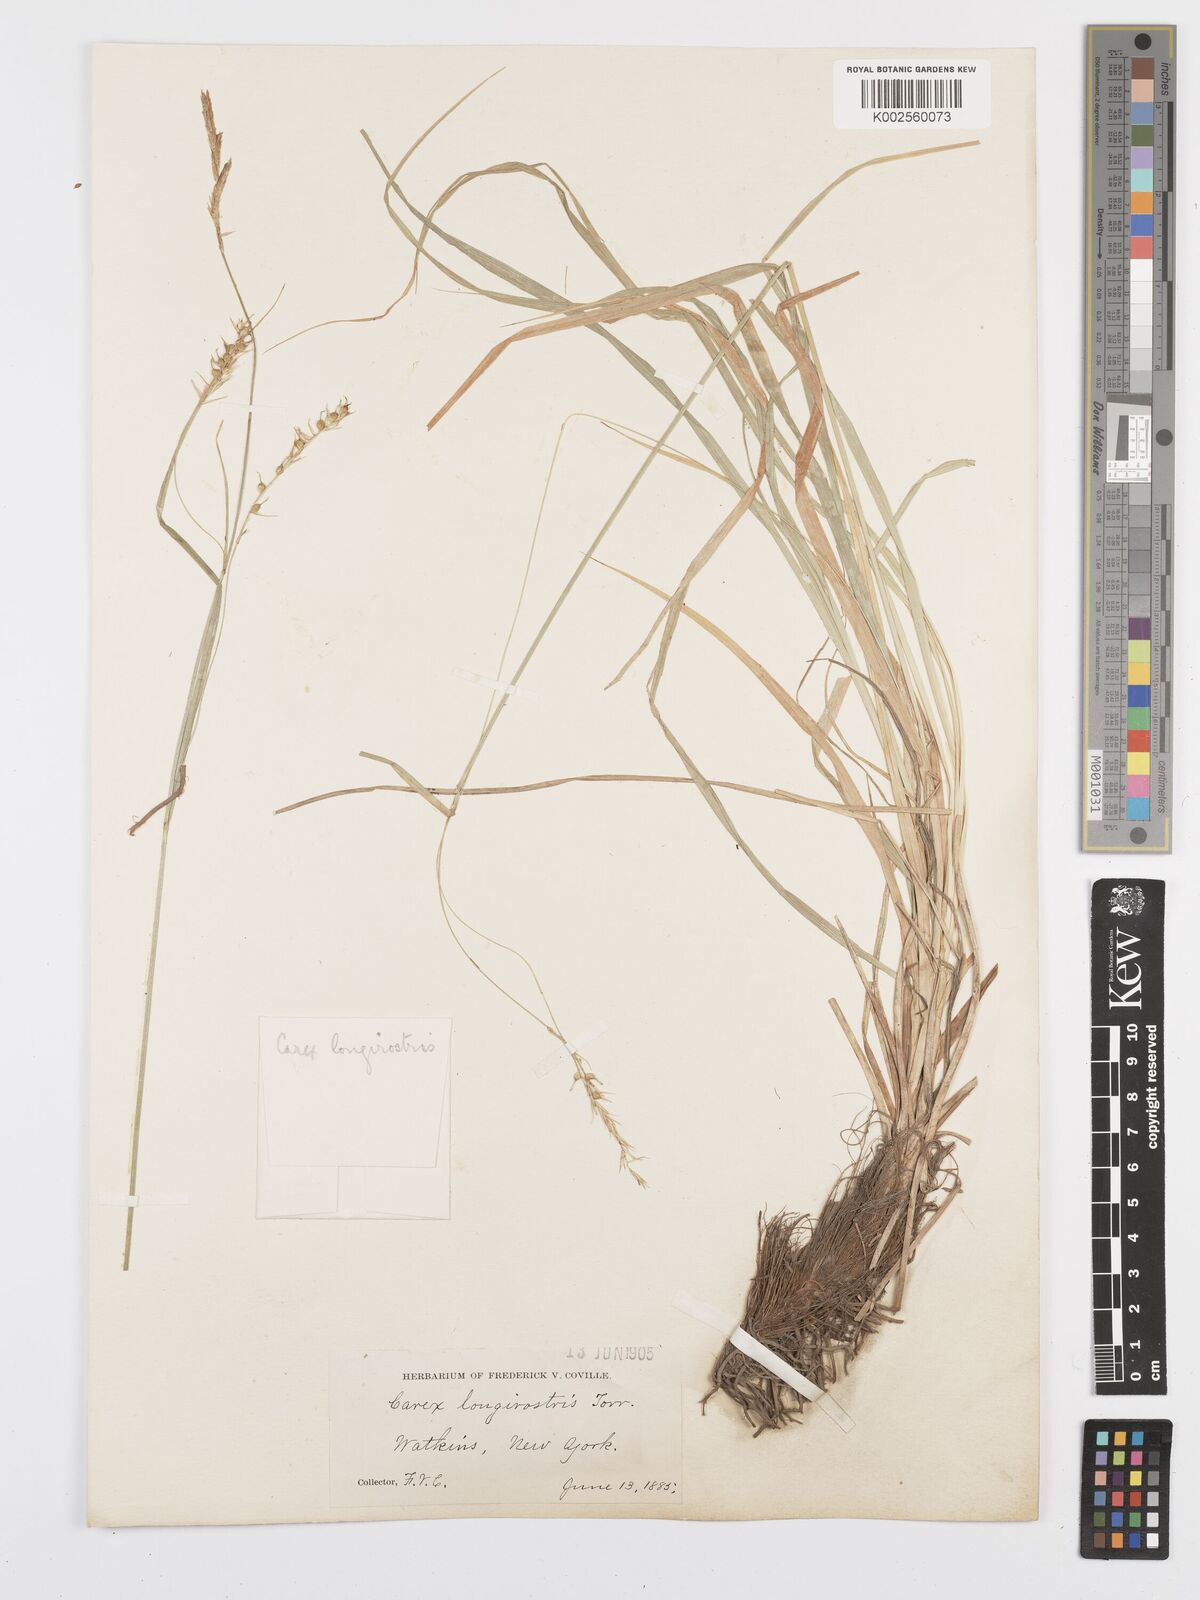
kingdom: Plantae
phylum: Tracheophyta
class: Liliopsida
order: Poales
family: Cyperaceae
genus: Carex
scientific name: Carex sprengelii
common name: Long-beaked sedge
